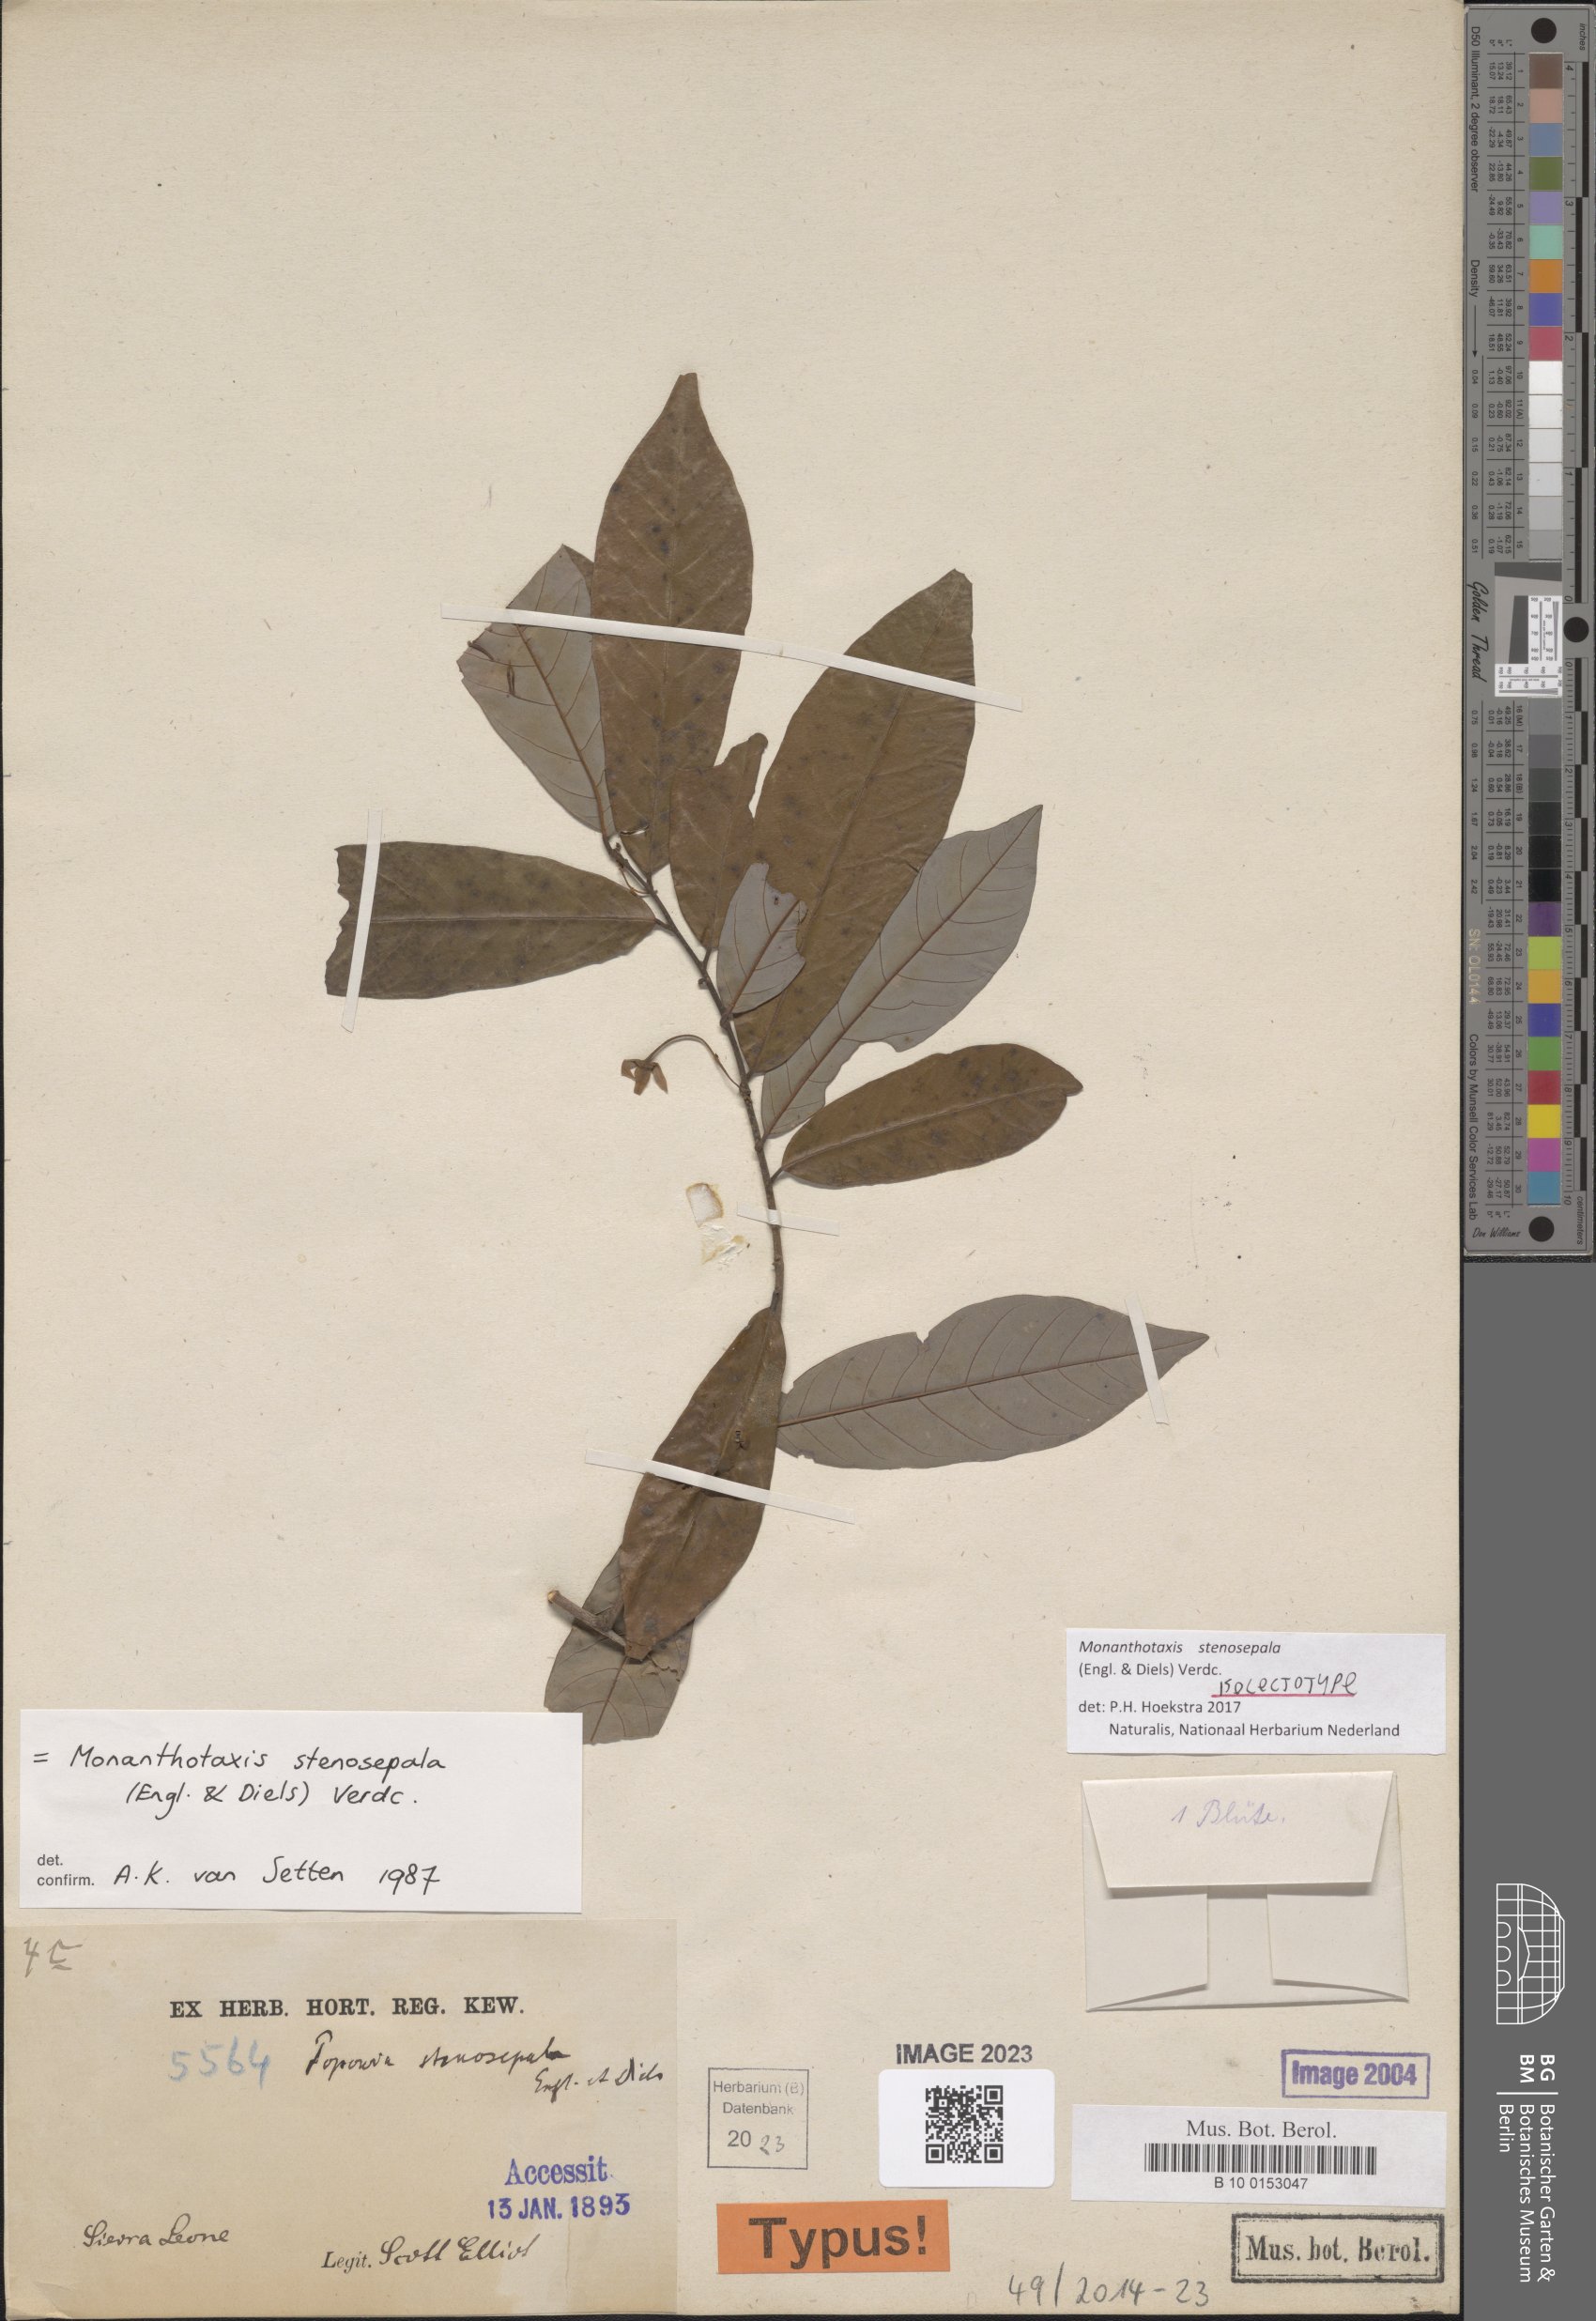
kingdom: Plantae
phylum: Tracheophyta
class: Magnoliopsida
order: Magnoliales
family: Annonaceae
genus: Monanthotaxis
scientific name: Monanthotaxis stenosepala
